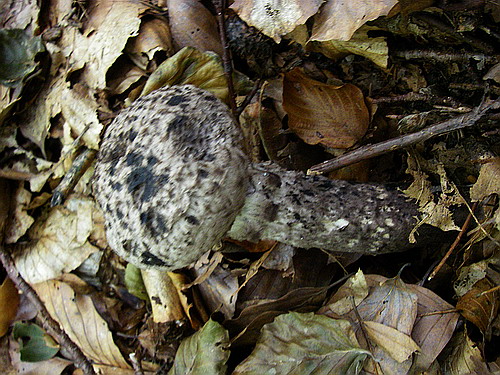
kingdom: Fungi
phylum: Basidiomycota
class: Agaricomycetes
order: Boletales
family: Boletaceae
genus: Strobilomyces
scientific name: Strobilomyces strobilaceus
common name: koglerørhat
